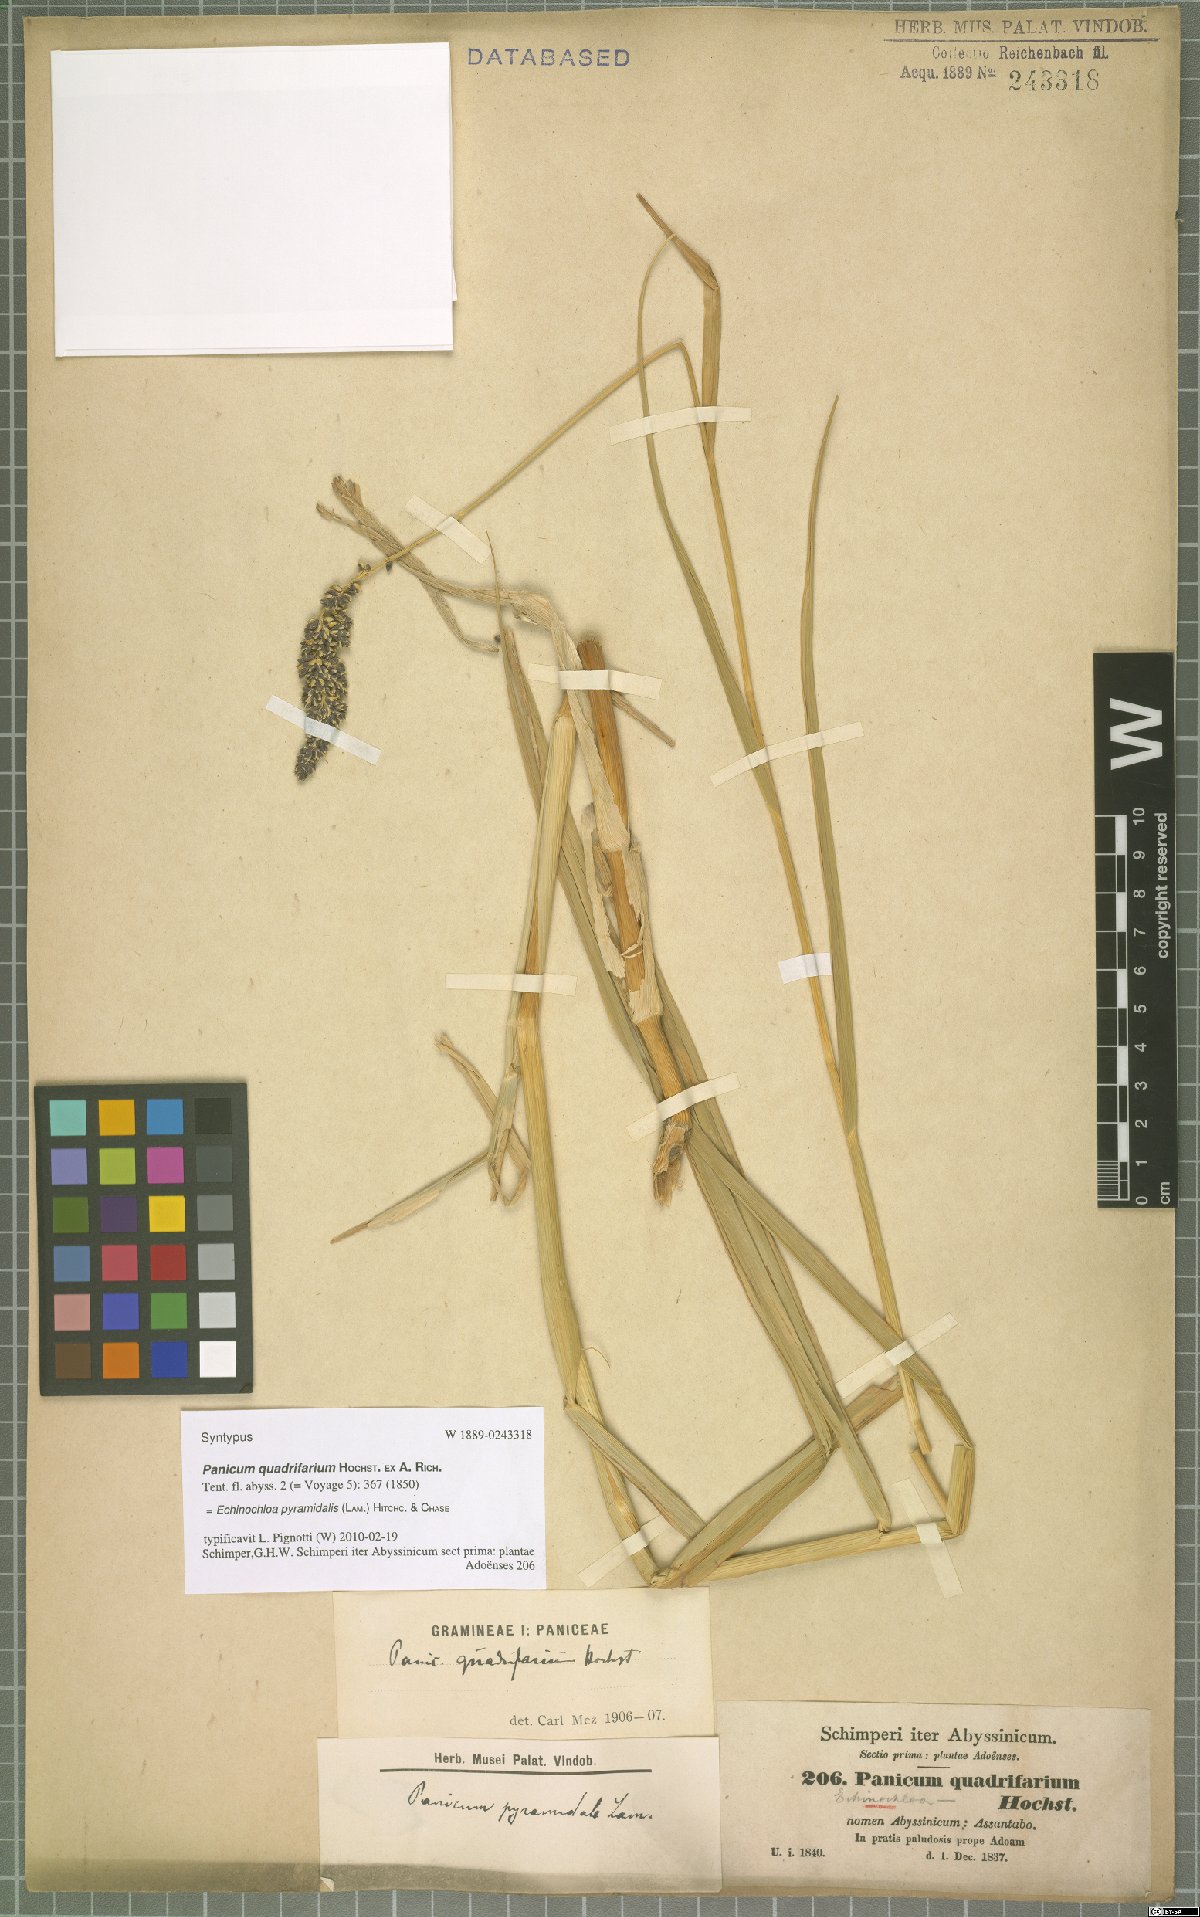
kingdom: Plantae
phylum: Tracheophyta
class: Liliopsida
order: Poales
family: Poaceae
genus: Echinochloa
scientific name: Echinochloa pyramidalis
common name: Antelope grass
